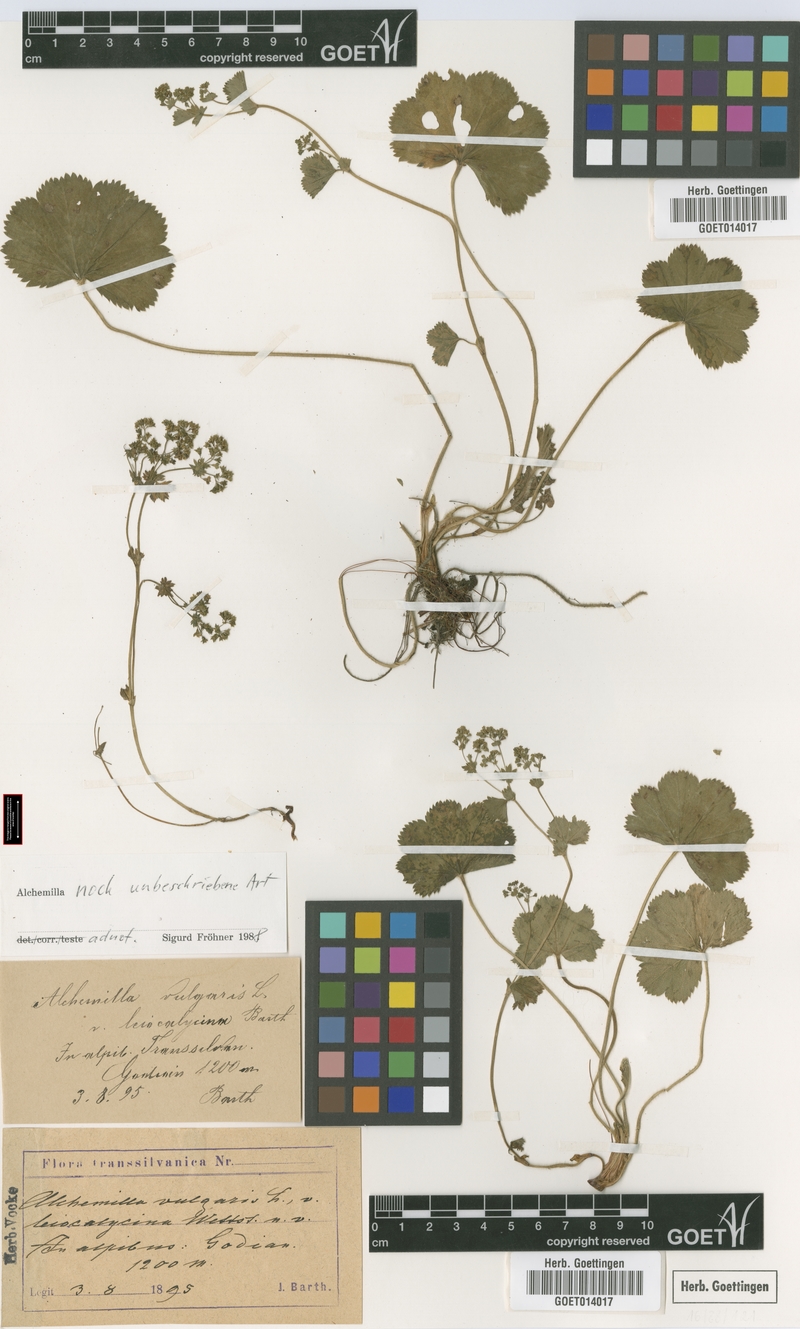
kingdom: Plantae
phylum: Tracheophyta
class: Magnoliopsida
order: Rosales
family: Rosaceae
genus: Alchemilla
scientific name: Alchemilla
